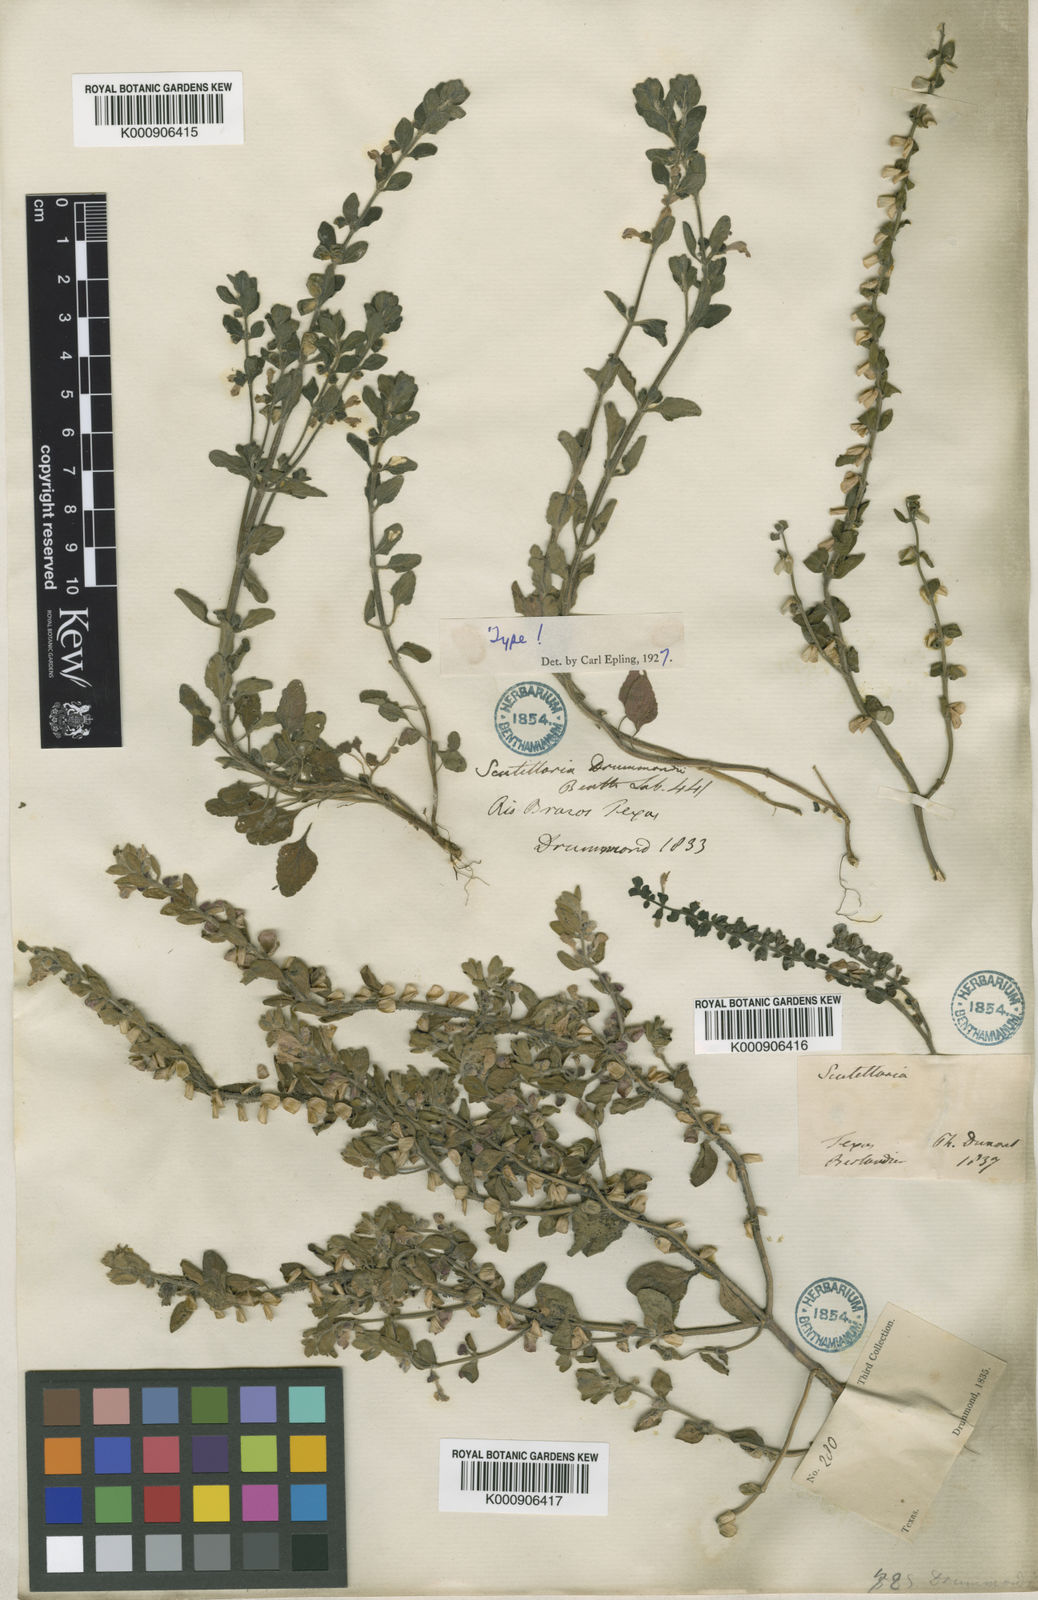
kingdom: Plantae
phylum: Tracheophyta
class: Magnoliopsida
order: Lamiales
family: Lamiaceae
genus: Scutellaria
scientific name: Scutellaria drummondii
